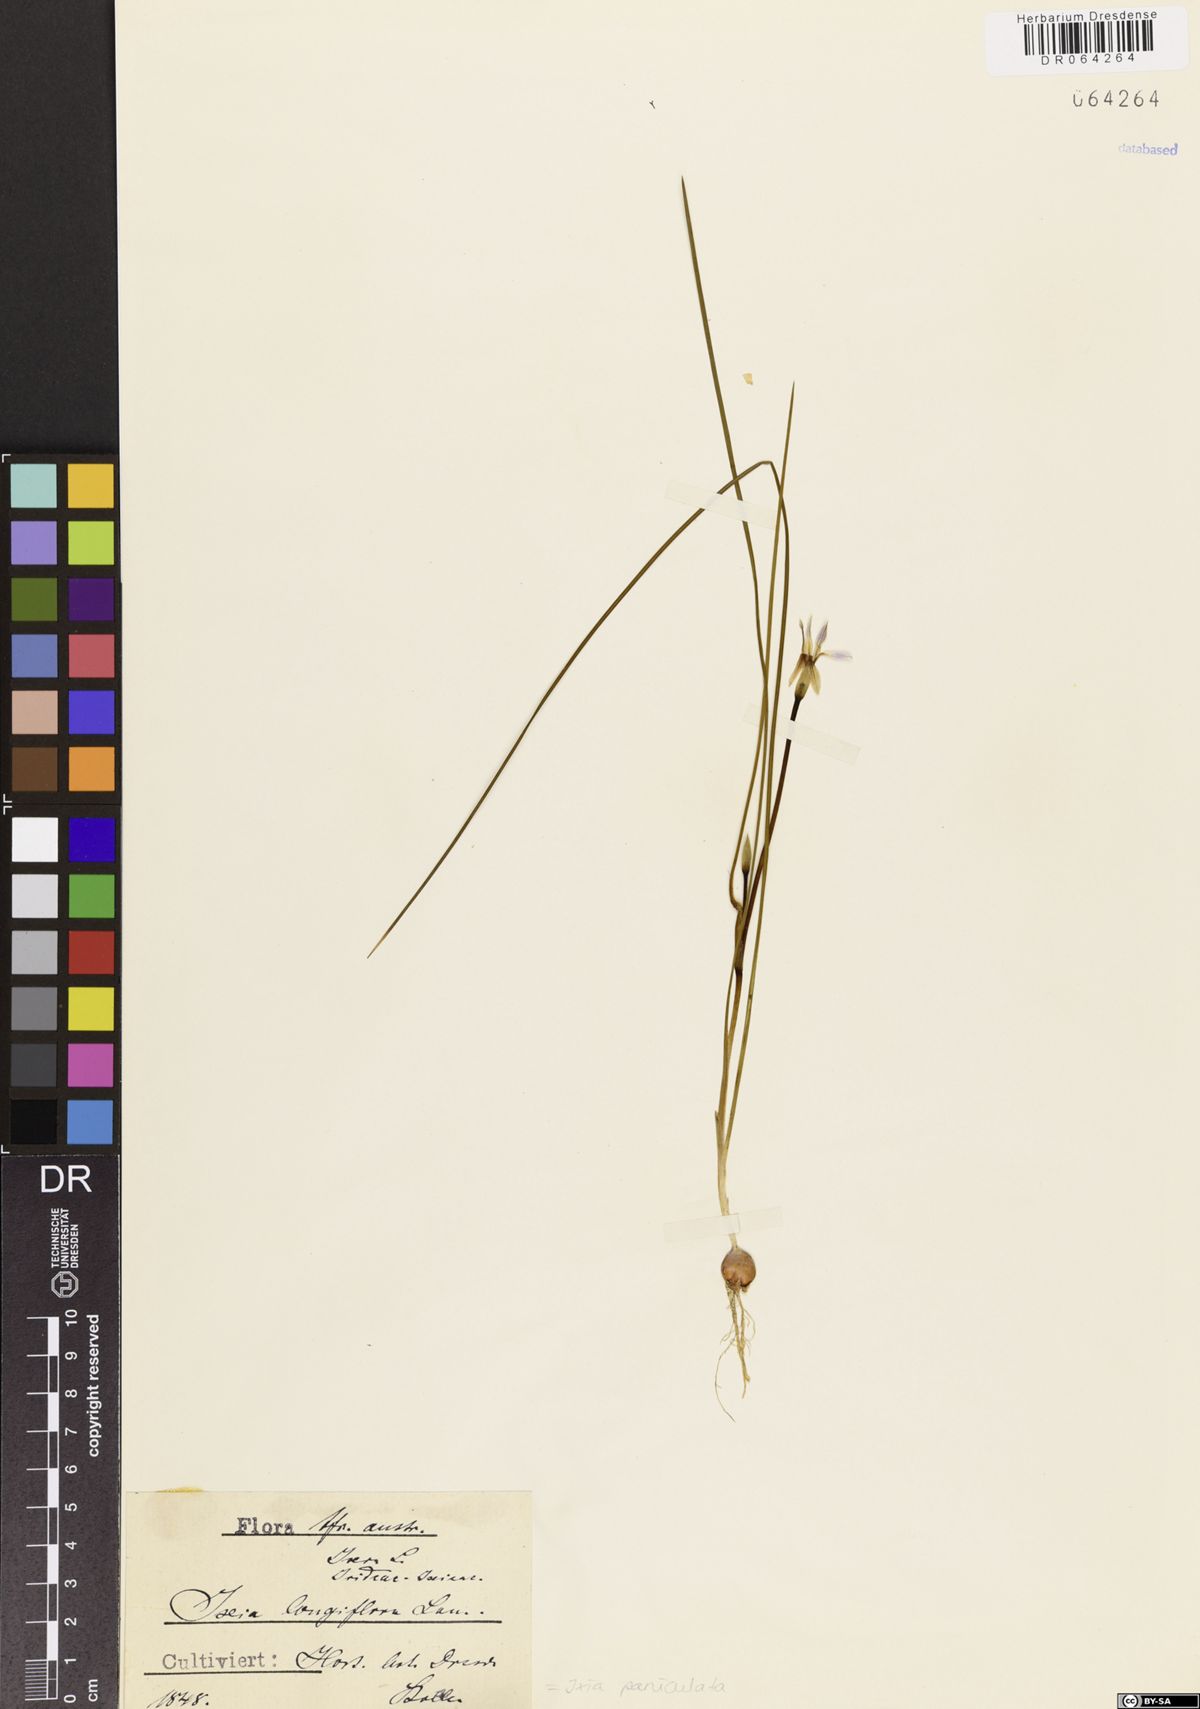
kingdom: Plantae
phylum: Tracheophyta
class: Liliopsida
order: Asparagales
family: Iridaceae
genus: Ixia
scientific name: Ixia paniculata
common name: Tubular corn-lily
